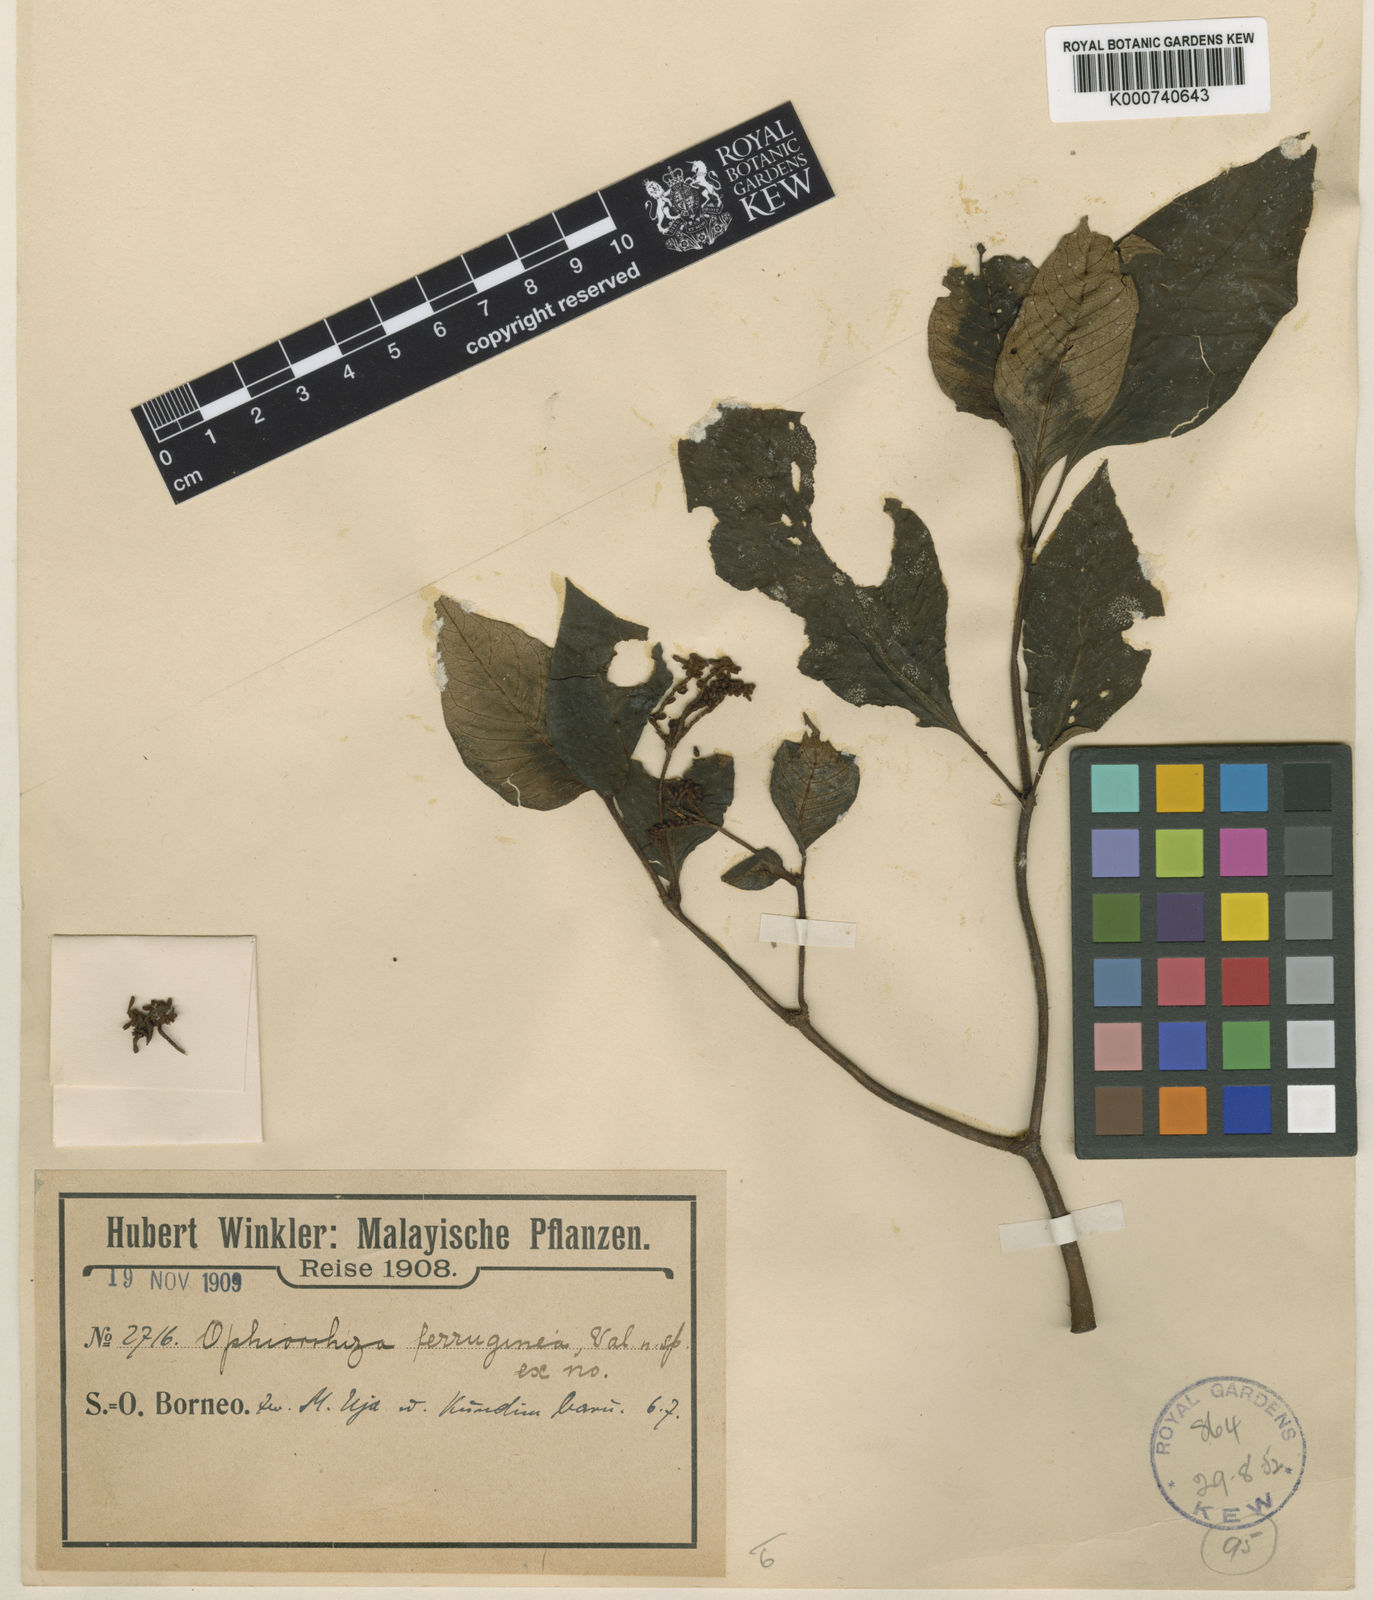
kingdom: Plantae
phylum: Tracheophyta
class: Magnoliopsida
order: Gentianales
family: Rubiaceae
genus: Ophiorrhiza
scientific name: Ophiorrhiza ferruginea
